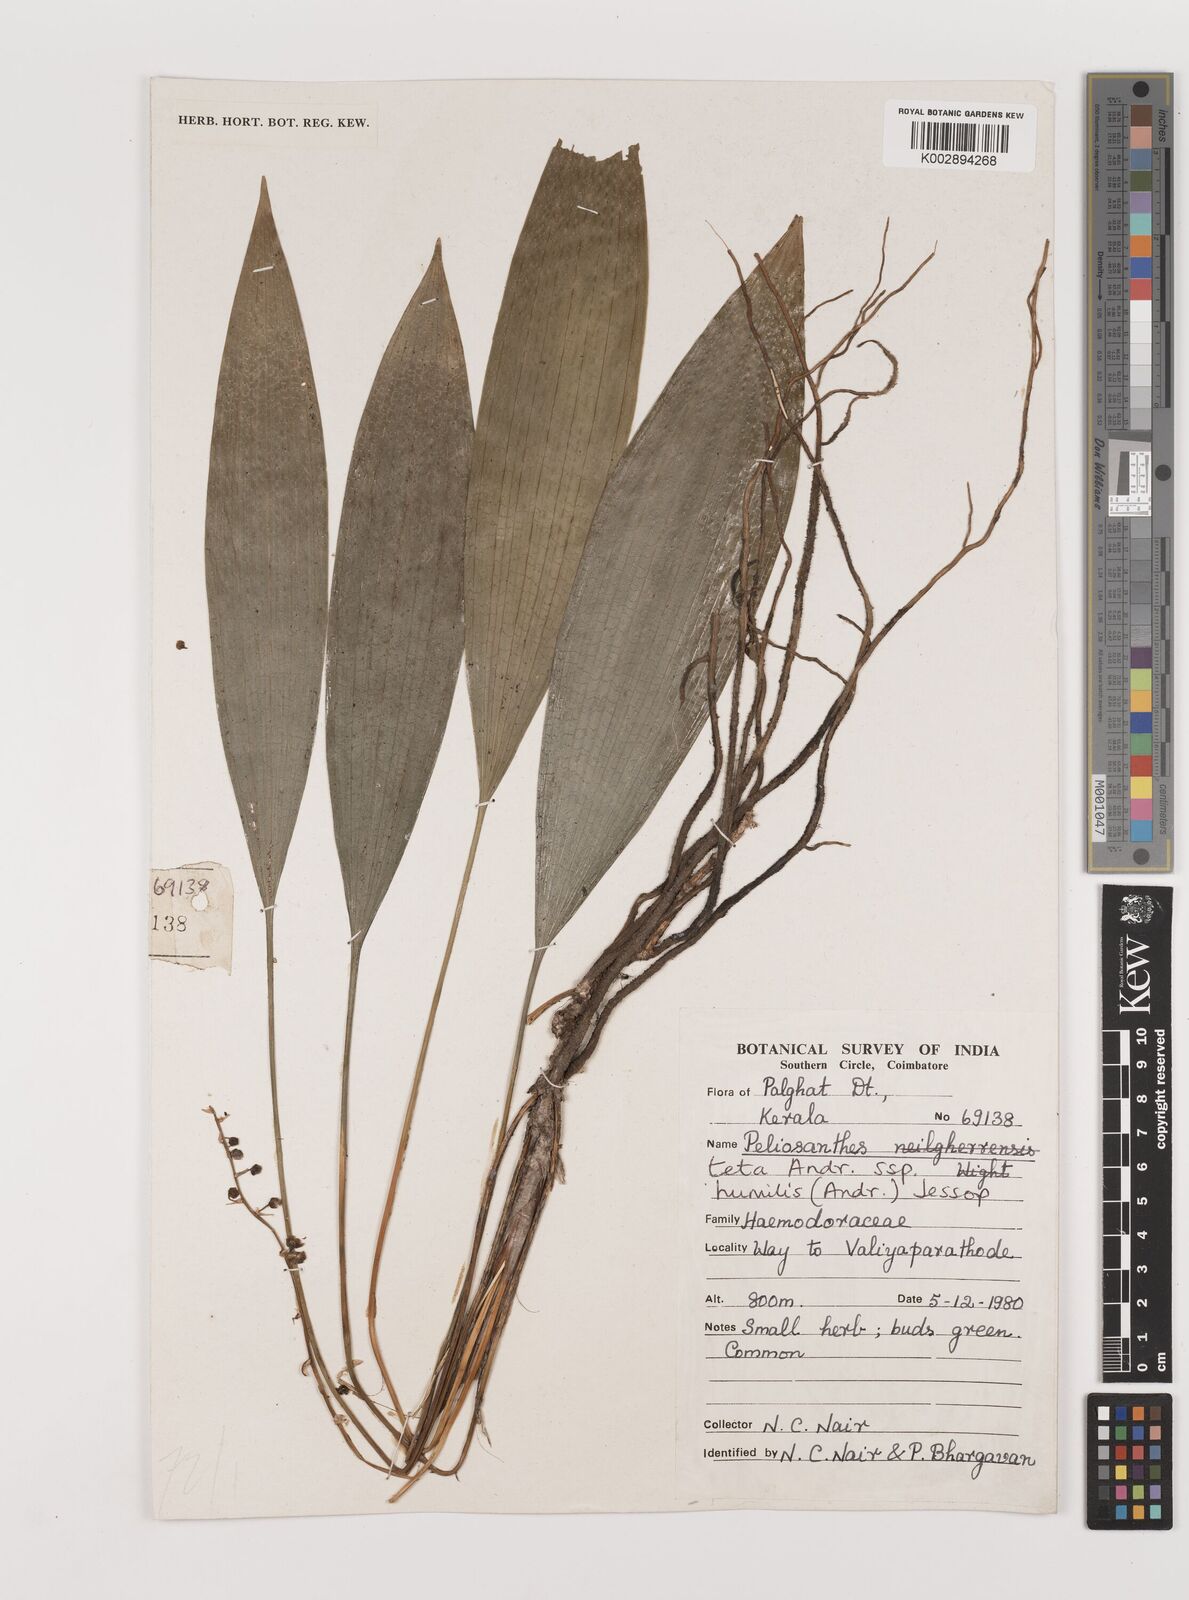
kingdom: Plantae
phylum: Tracheophyta
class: Liliopsida
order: Asparagales
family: Asparagaceae
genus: Peliosanthes
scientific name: Peliosanthes teta
